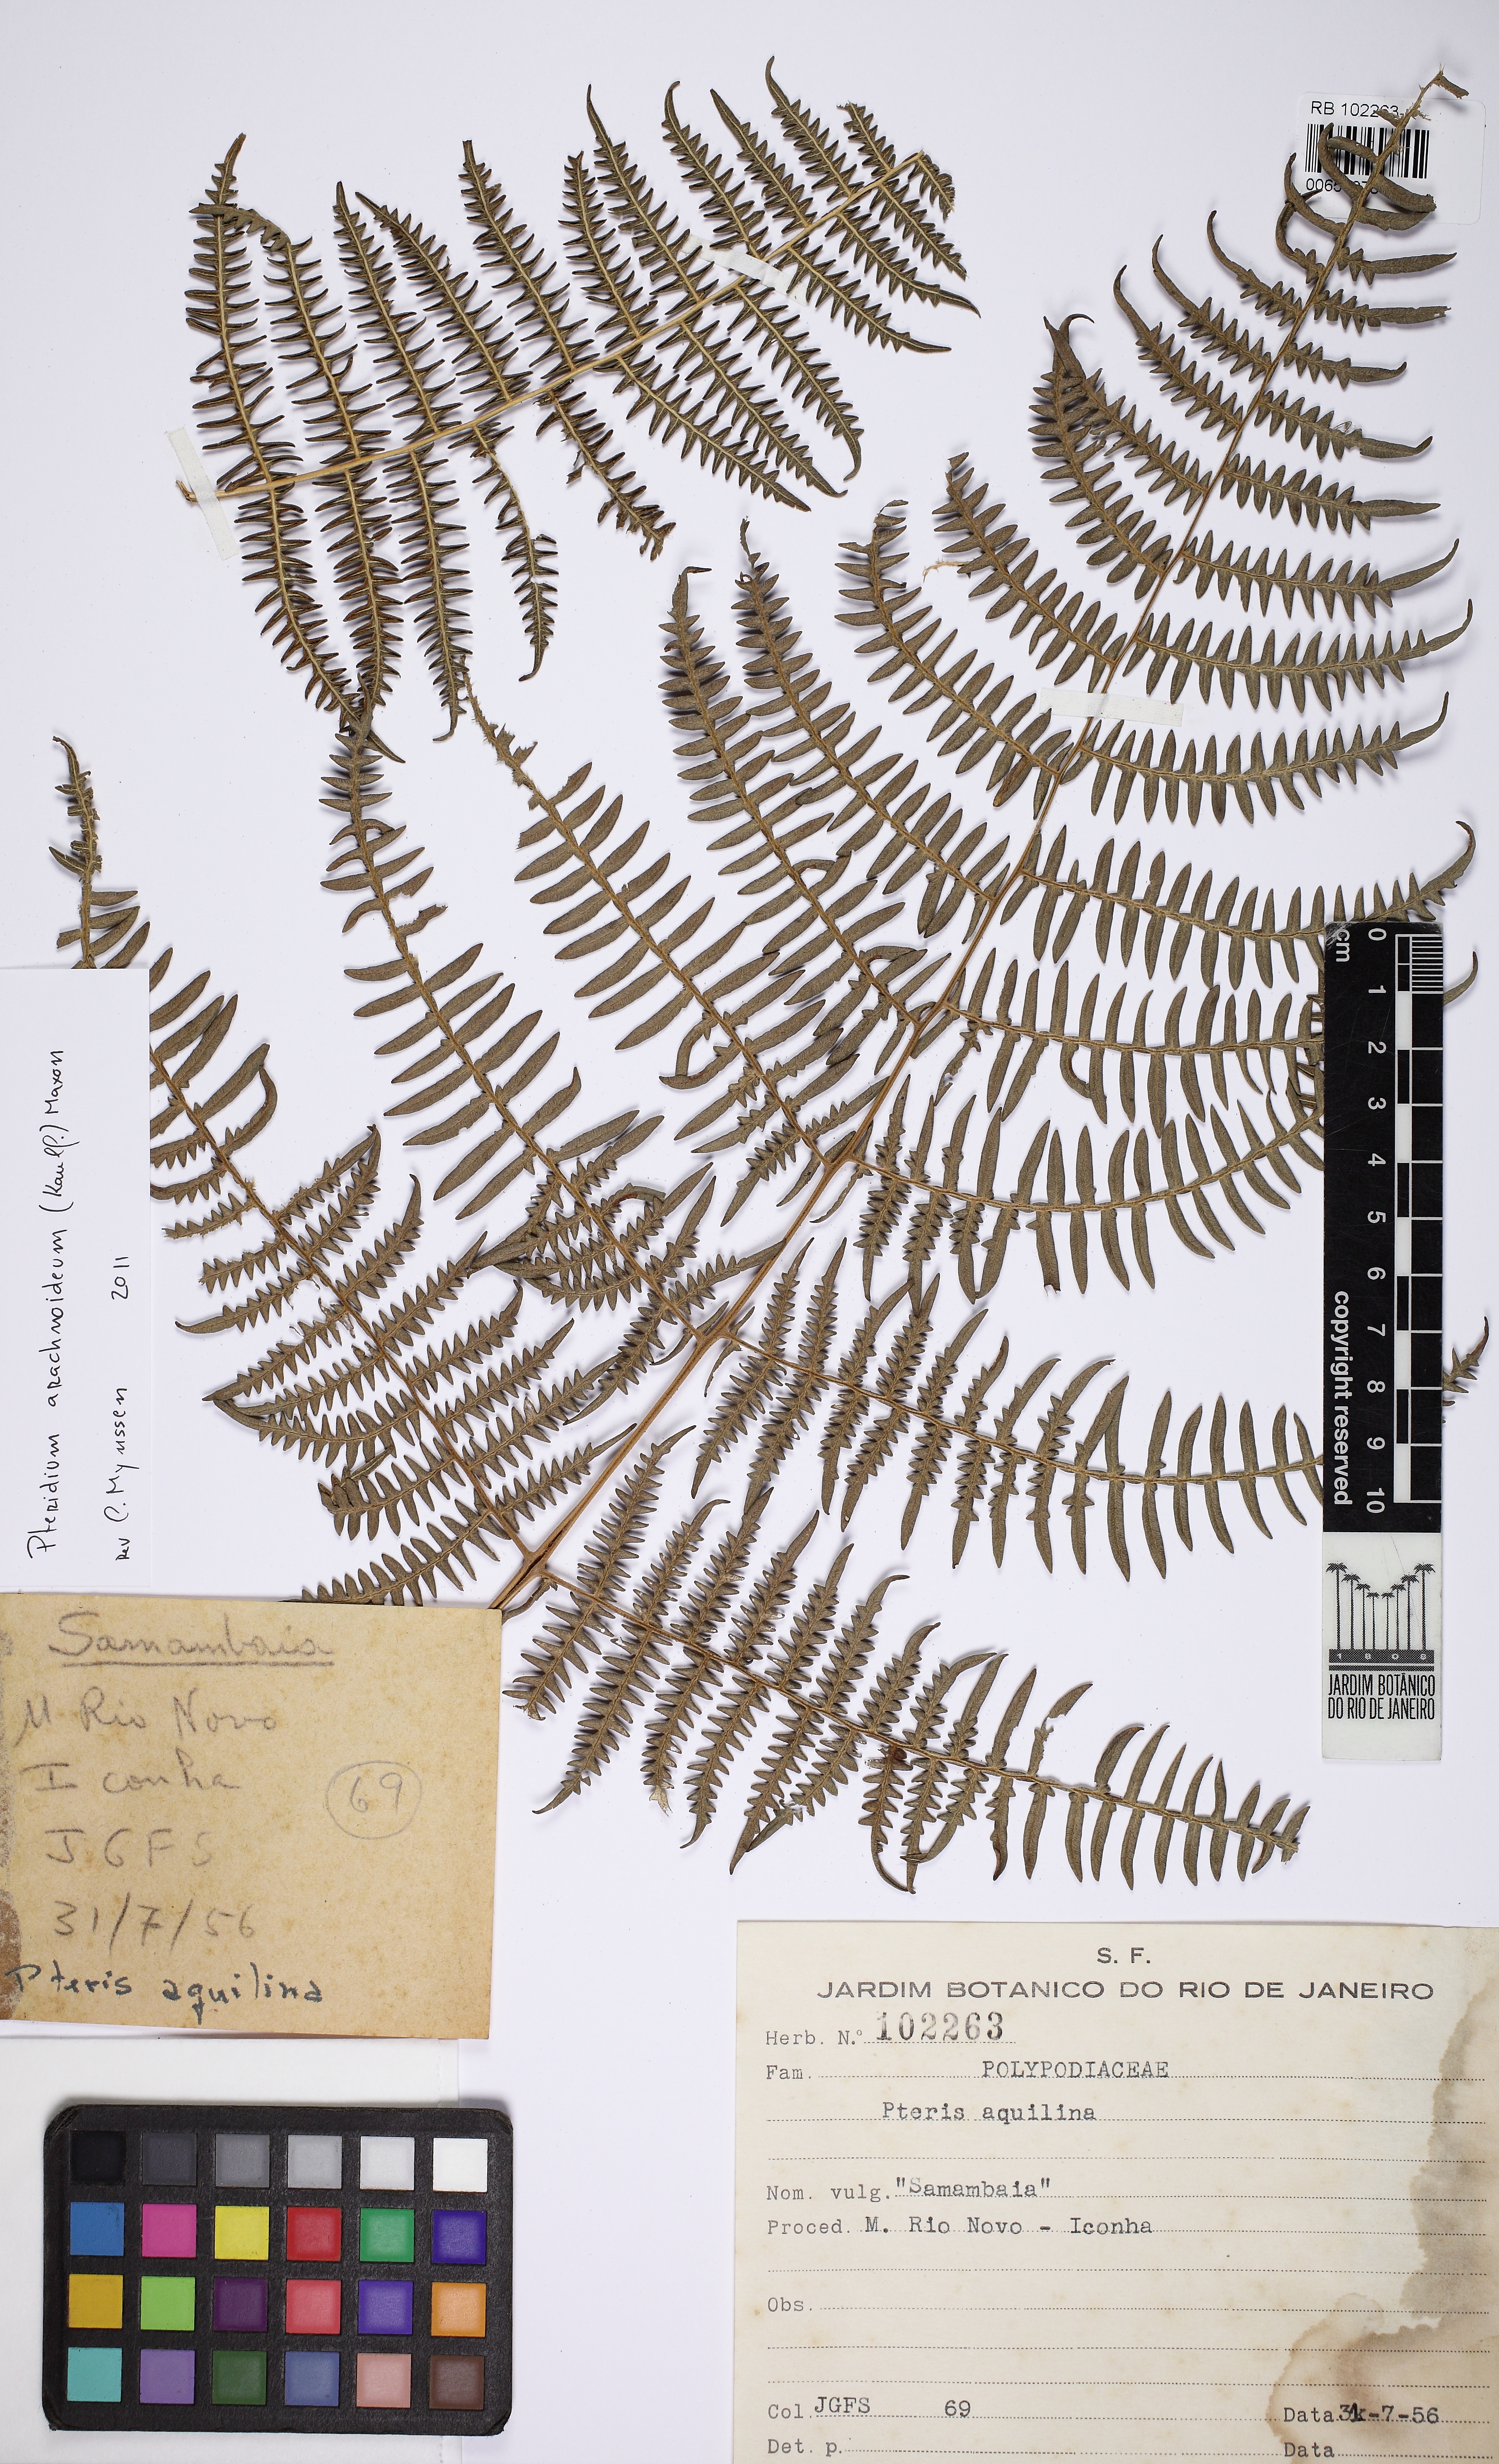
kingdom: Plantae
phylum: Tracheophyta
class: Polypodiopsida
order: Polypodiales
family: Dennstaedtiaceae
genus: Pteridium
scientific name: Pteridium aquilinum
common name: Bracken
